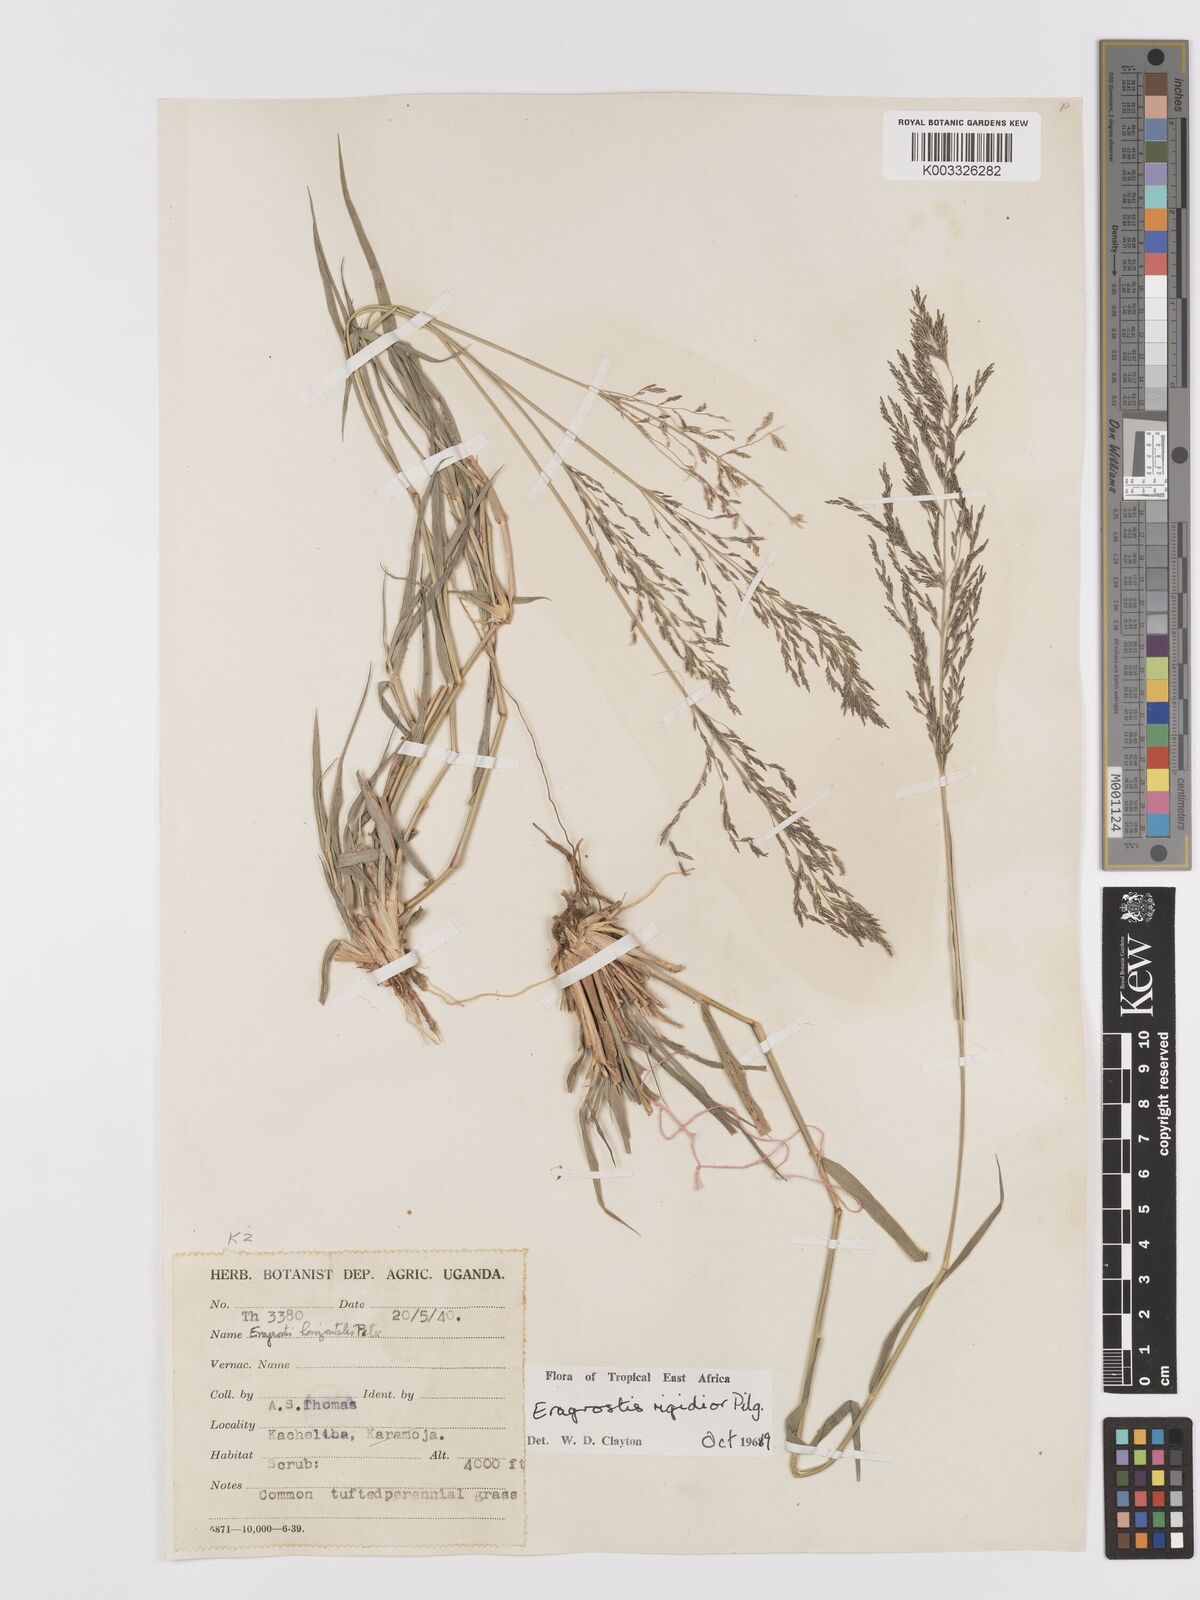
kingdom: Plantae
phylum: Tracheophyta
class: Liliopsida
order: Poales
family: Poaceae
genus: Eragrostis
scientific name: Eragrostis cylindriflora
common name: Cylinderflower lovegrass
